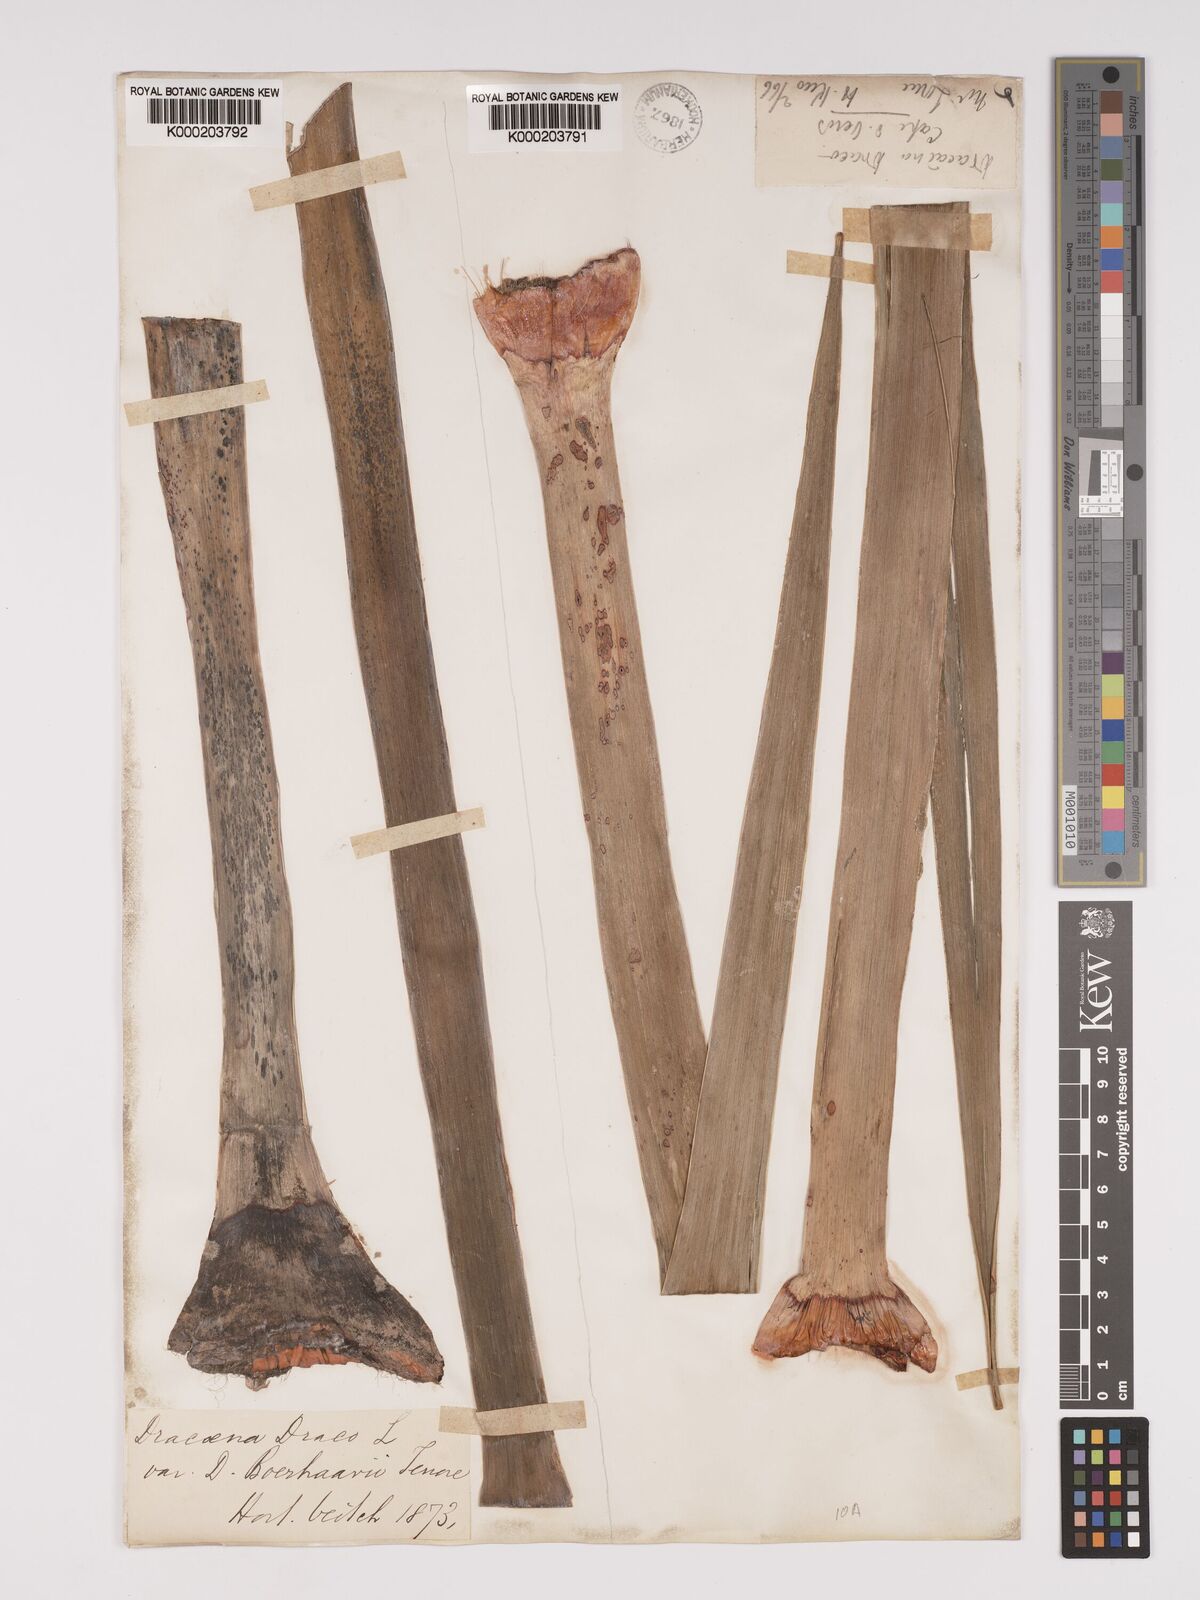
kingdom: Plantae
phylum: Tracheophyta
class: Liliopsida
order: Asparagales
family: Asparagaceae
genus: Dracaena
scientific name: Dracaena draco
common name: Canary island dragon tree
